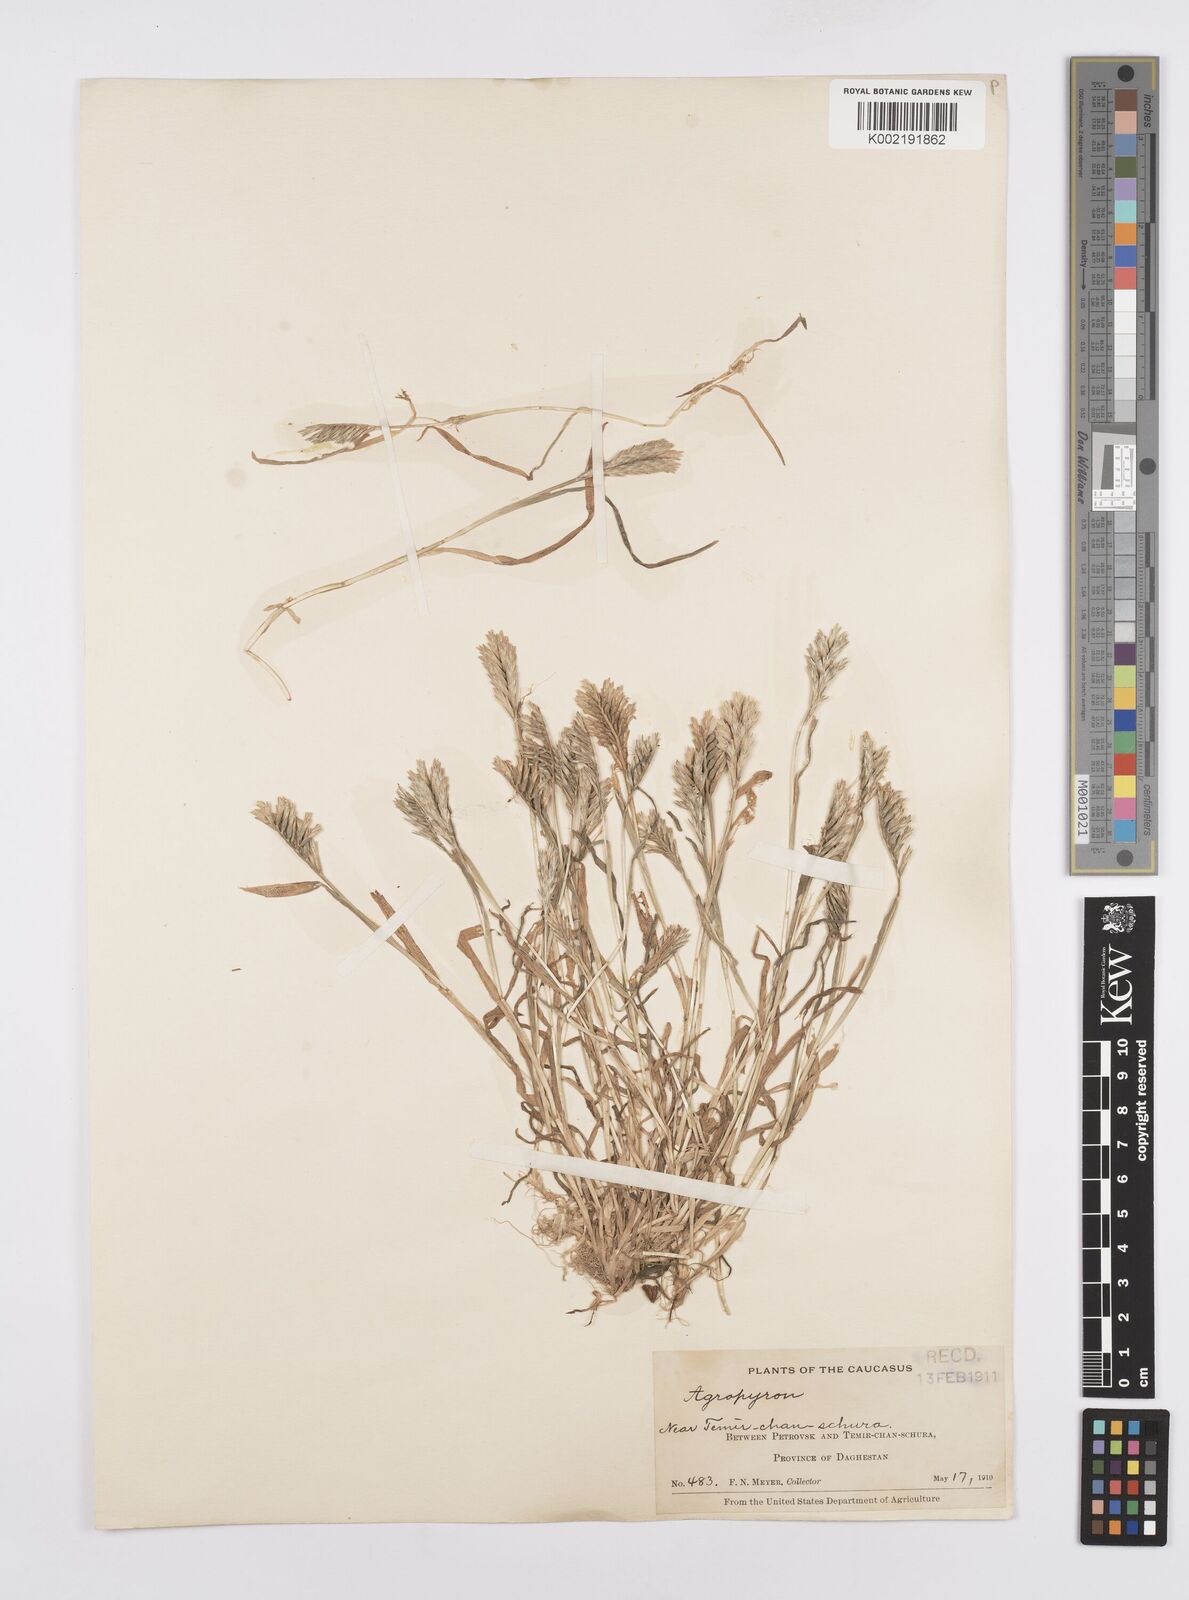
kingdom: Plantae
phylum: Tracheophyta
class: Liliopsida
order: Poales
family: Poaceae
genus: Sclerochloa
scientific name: Sclerochloa dura
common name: Common hardgrass
